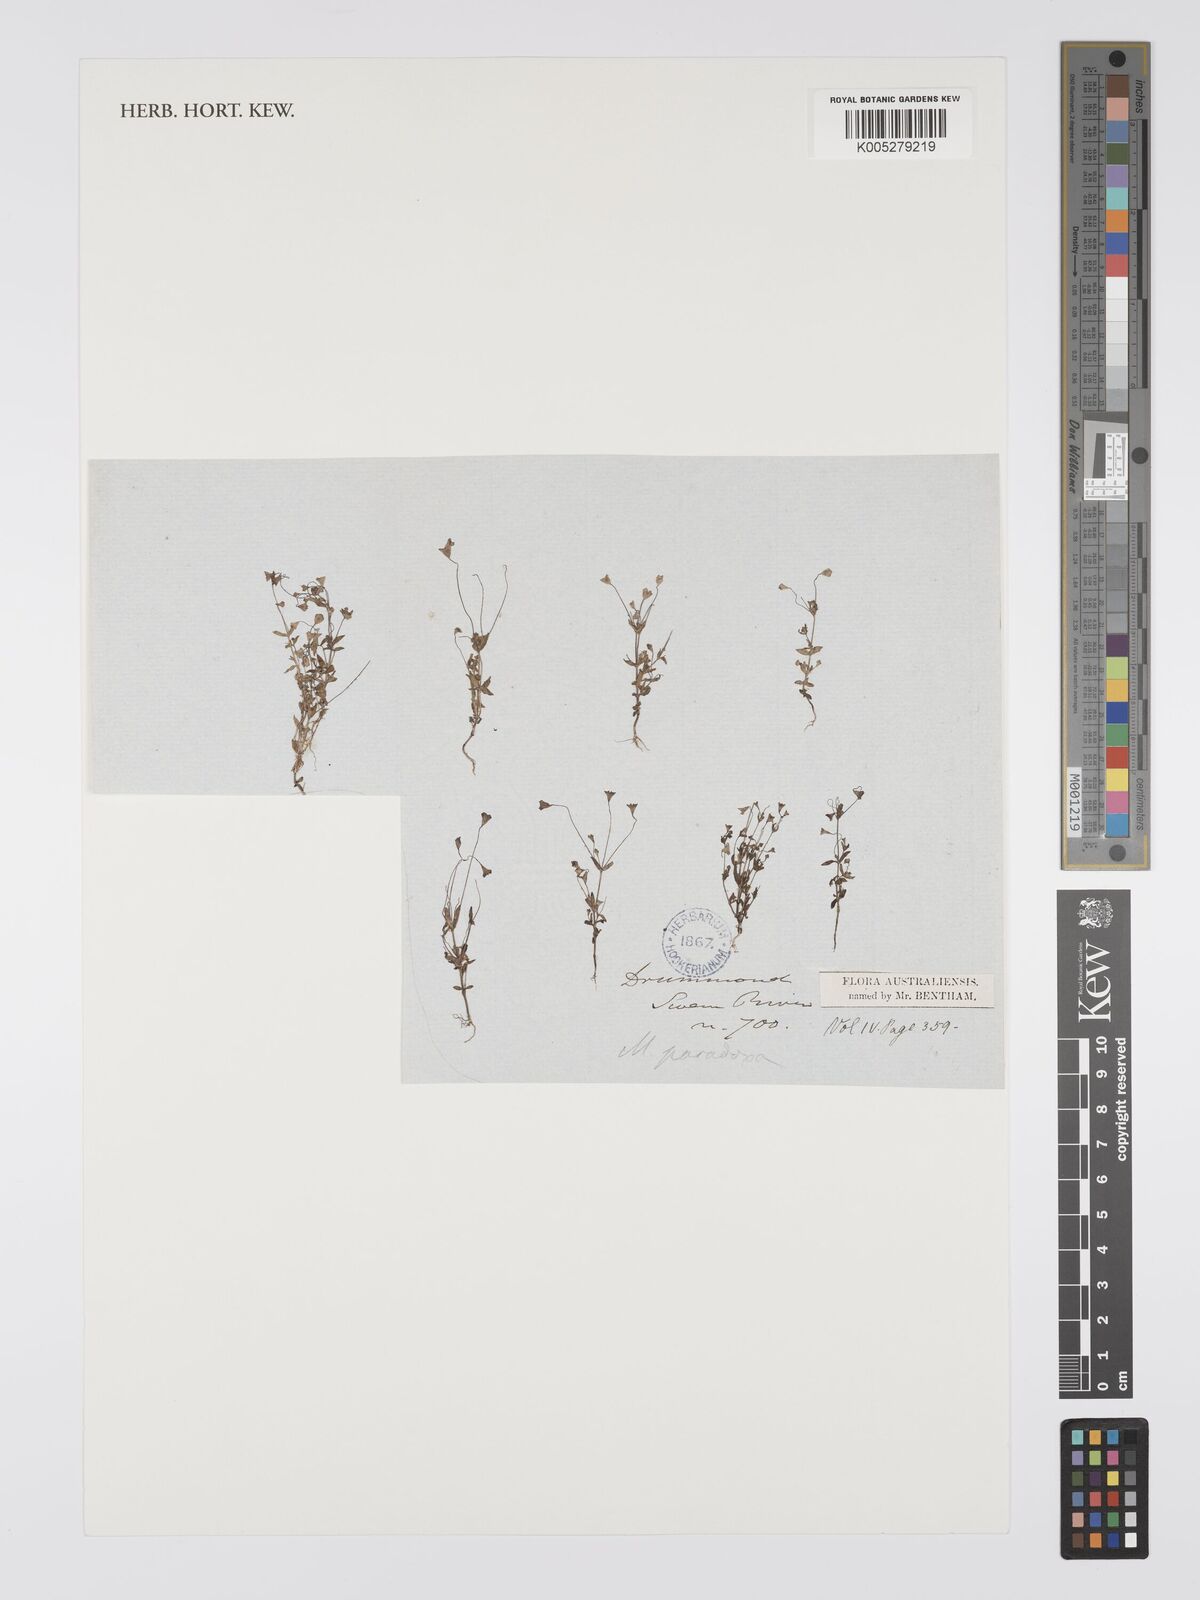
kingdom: Plantae
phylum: Tracheophyta
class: Magnoliopsida
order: Gentianales
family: Loganiaceae
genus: Phyllangium
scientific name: Phyllangium paradoxum
